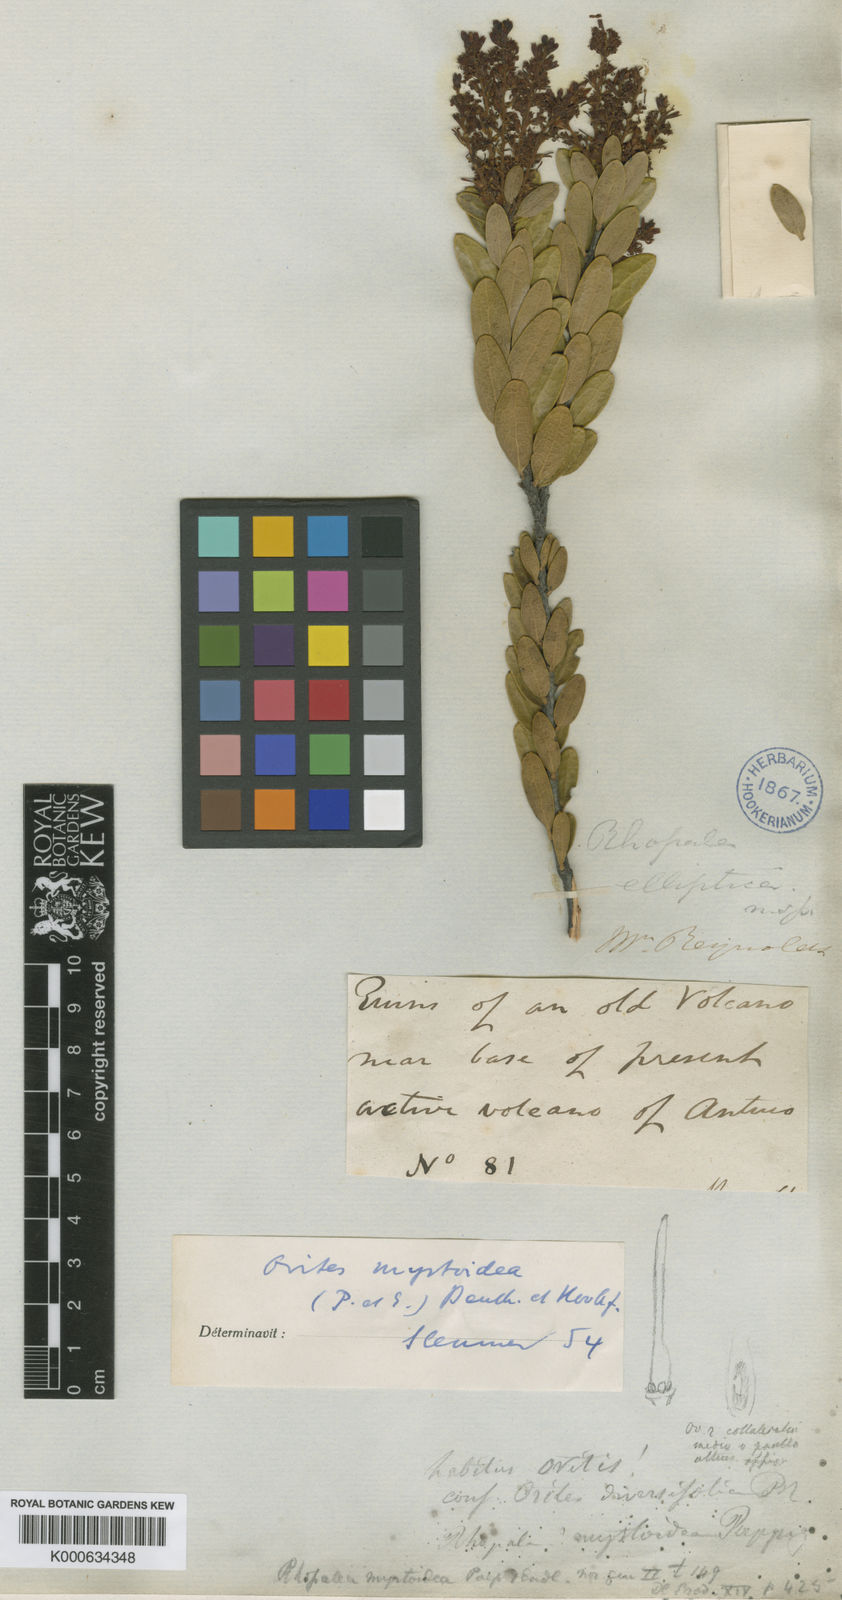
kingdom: Plantae
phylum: Tracheophyta
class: Magnoliopsida
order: Proteales
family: Proteaceae
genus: Orites
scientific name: Orites myrtoideus
